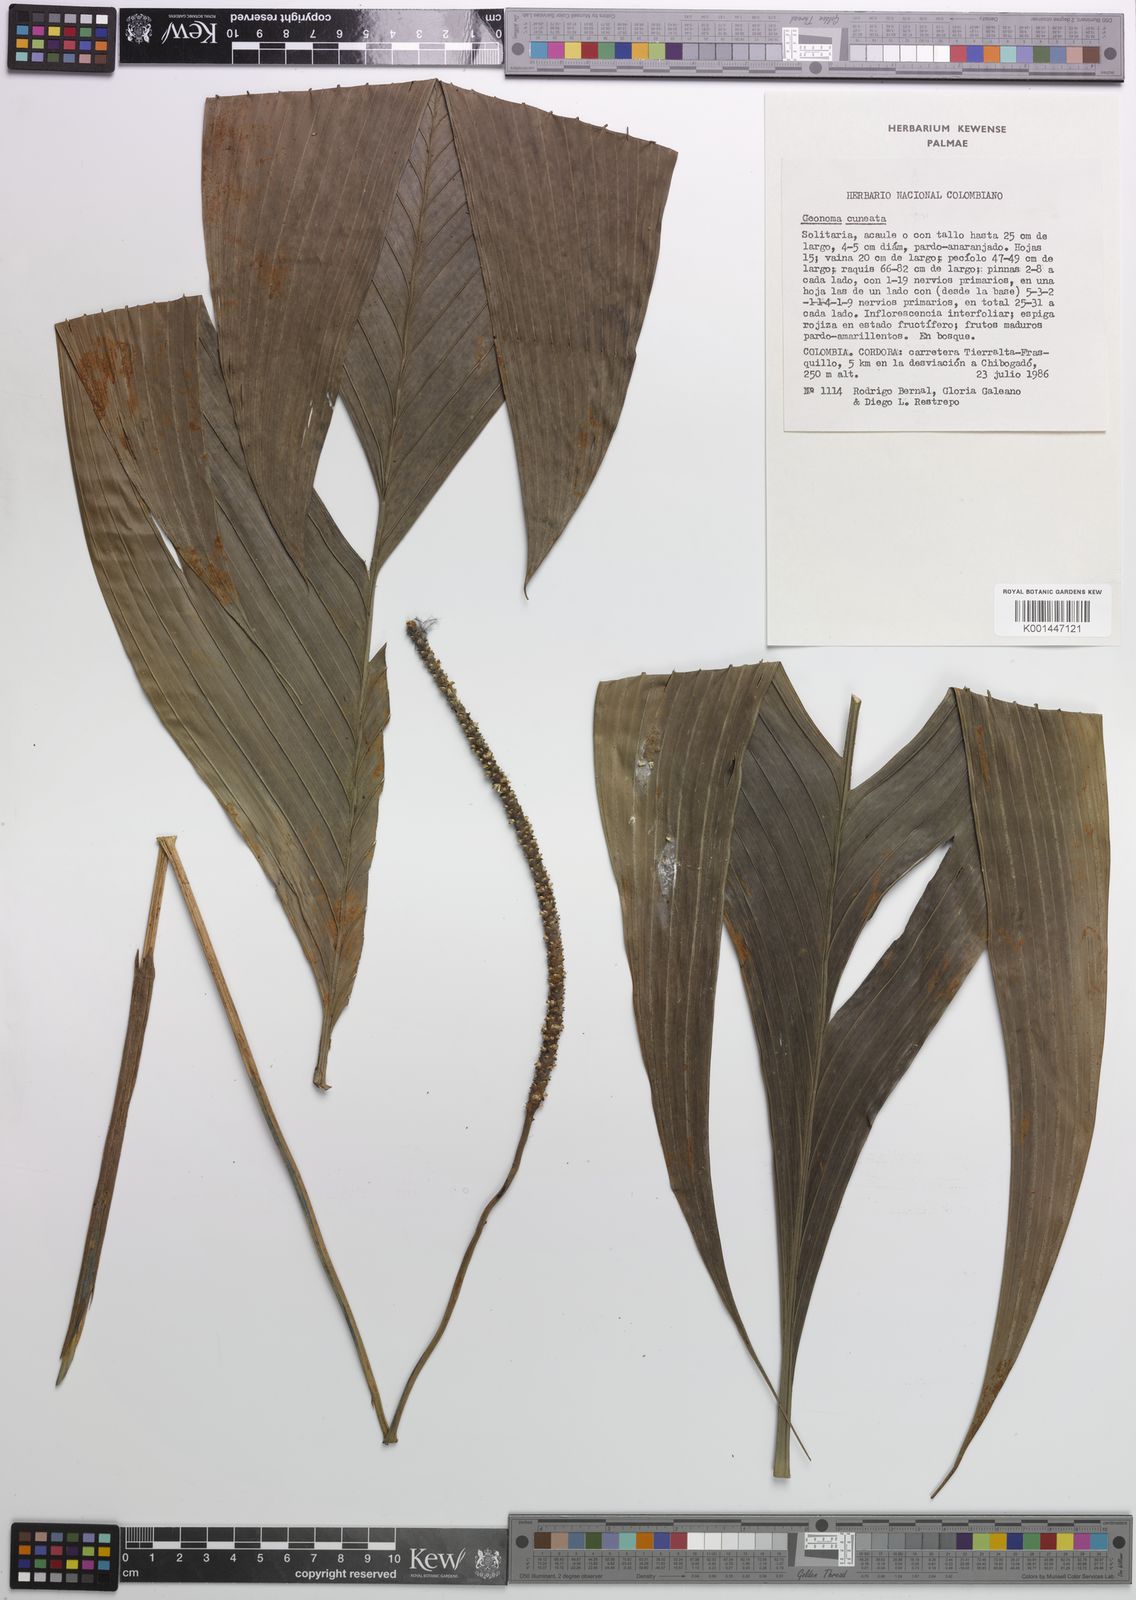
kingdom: Plantae
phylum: Tracheophyta
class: Liliopsida
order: Arecales
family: Arecaceae
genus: Geonoma
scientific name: Geonoma cuneata
